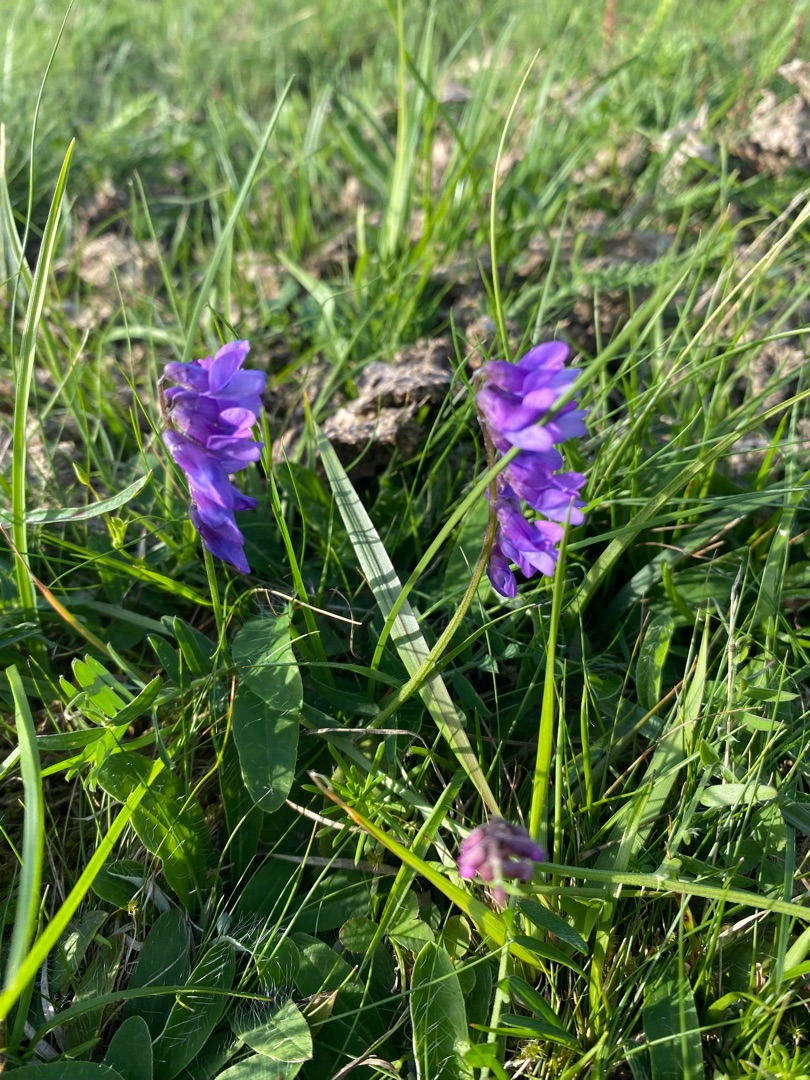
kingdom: Plantae
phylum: Tracheophyta
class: Magnoliopsida
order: Fabales
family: Fabaceae
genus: Vicia
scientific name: Vicia cracca
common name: Muse-vikke
